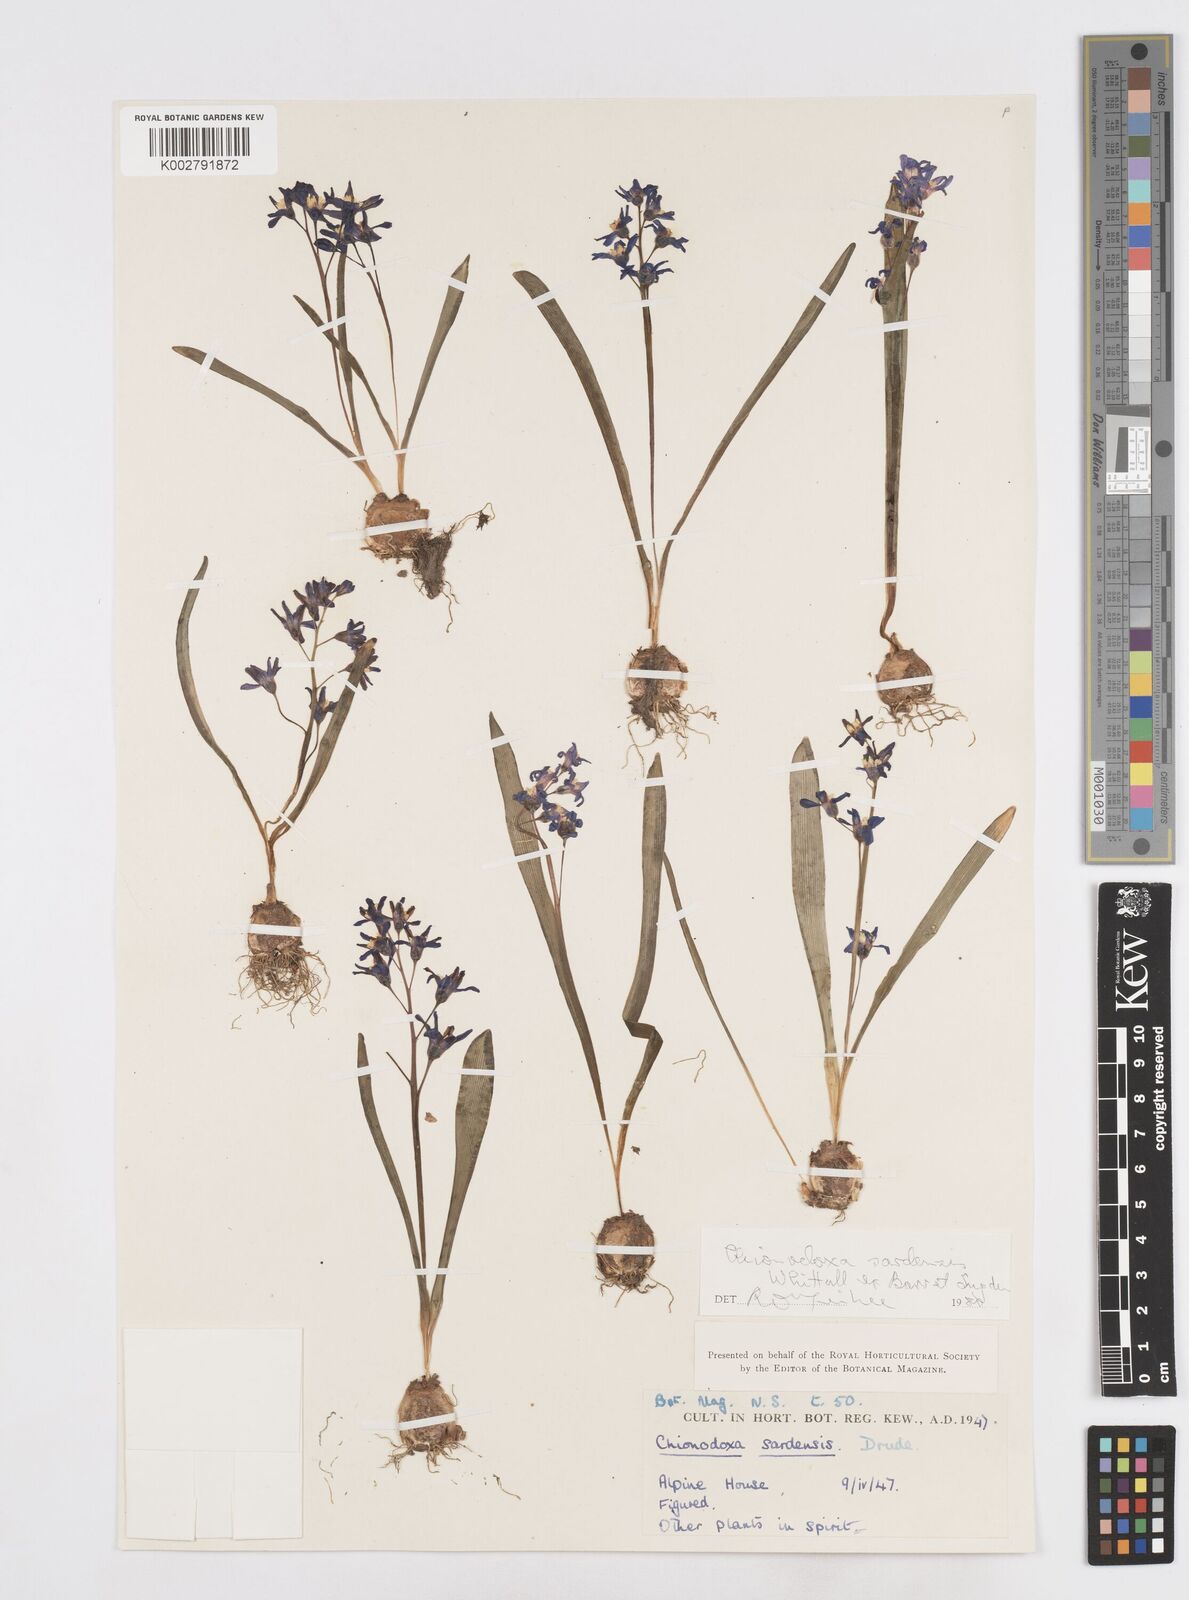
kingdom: Plantae
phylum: Tracheophyta
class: Liliopsida
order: Asparagales
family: Asparagaceae
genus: Scilla
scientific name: Scilla sardensis
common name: Lesser glory-of-the-snow
